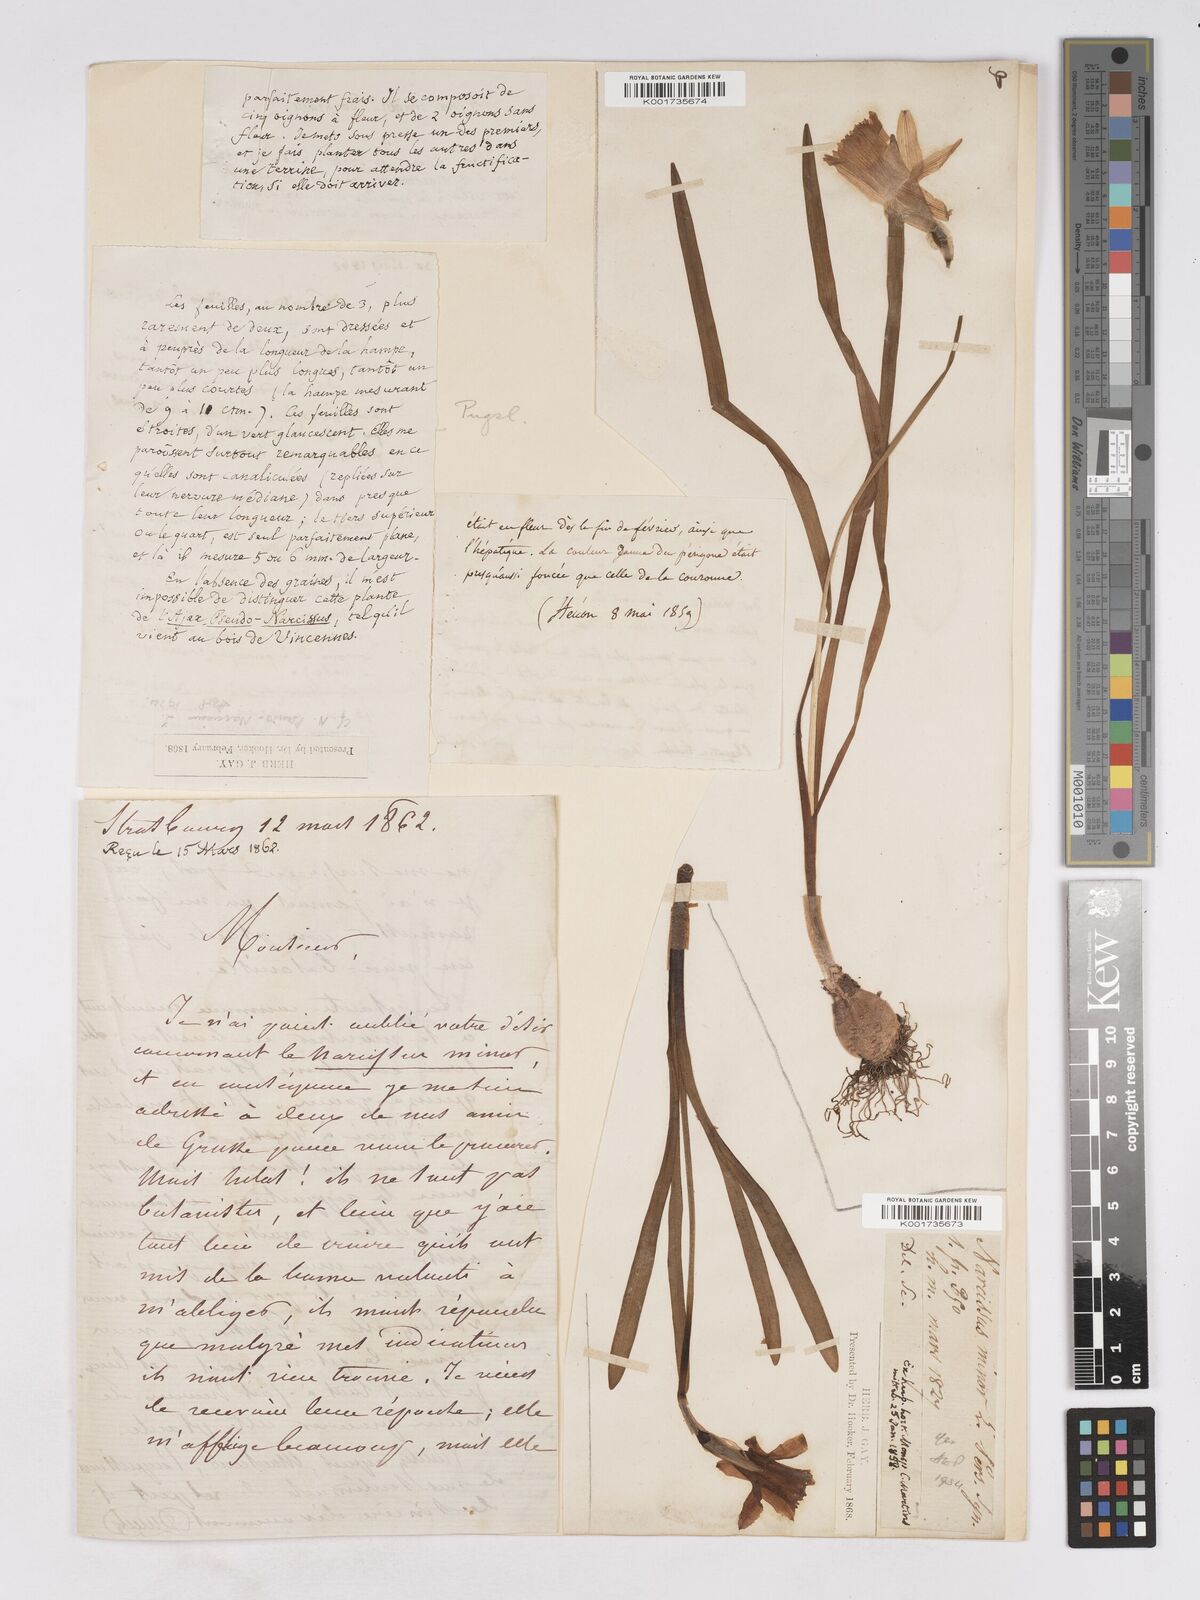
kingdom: Plantae
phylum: Tracheophyta
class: Liliopsida
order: Asparagales
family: Amaryllidaceae
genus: Narcissus
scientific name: Narcissus minor
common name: Lesser daffodil
